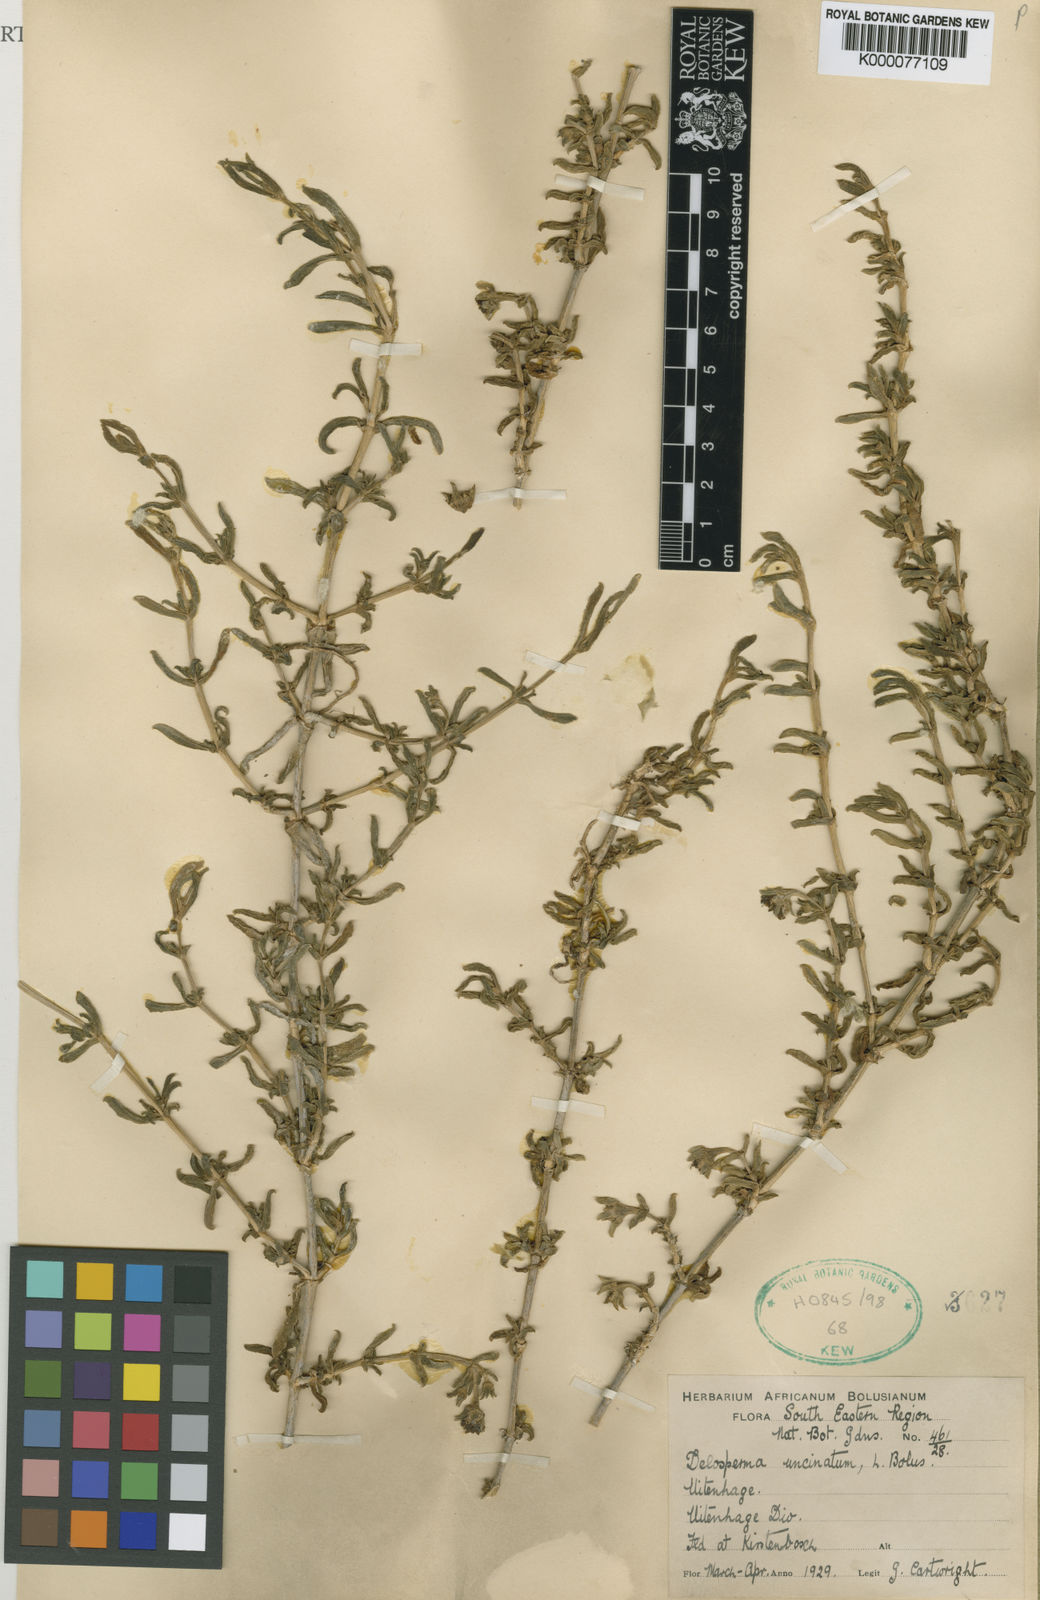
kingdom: Plantae
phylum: Tracheophyta
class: Magnoliopsida
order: Caryophyllales
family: Aizoaceae
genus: Delosperma
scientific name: Delosperma uncinatum
